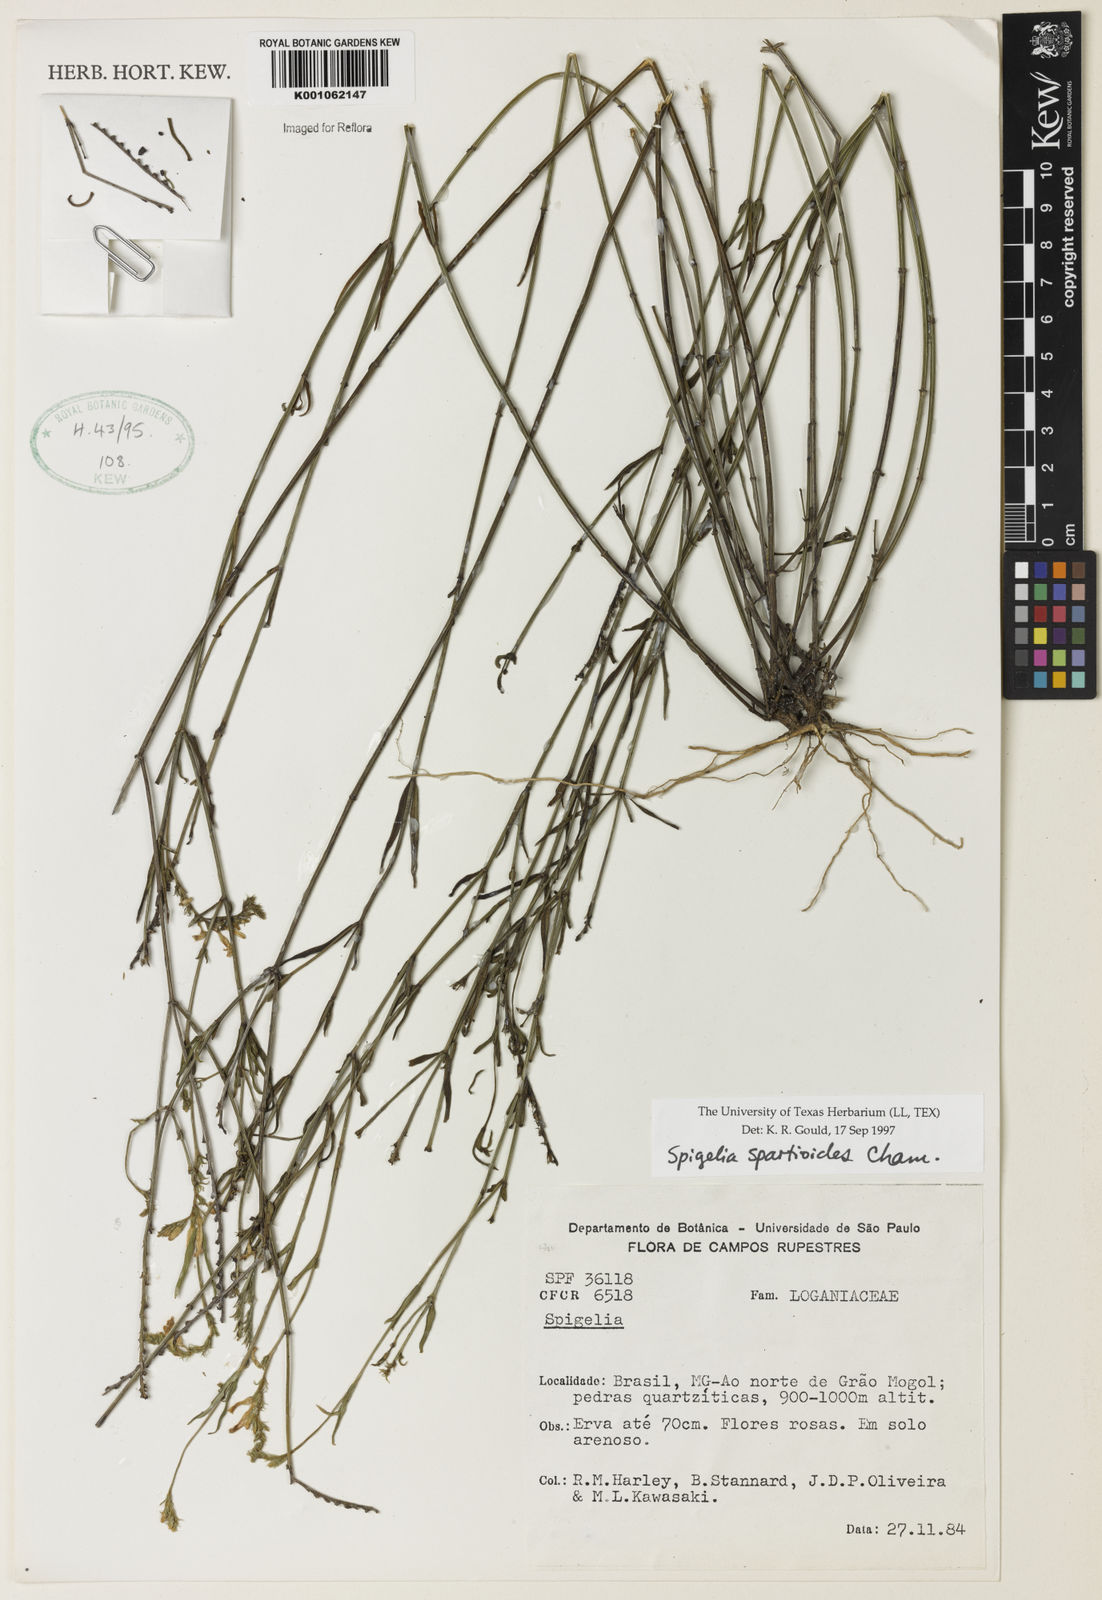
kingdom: Plantae
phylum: Tracheophyta
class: Magnoliopsida
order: Gentianales
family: Loganiaceae
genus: Spigelia
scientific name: Spigelia spartioides
